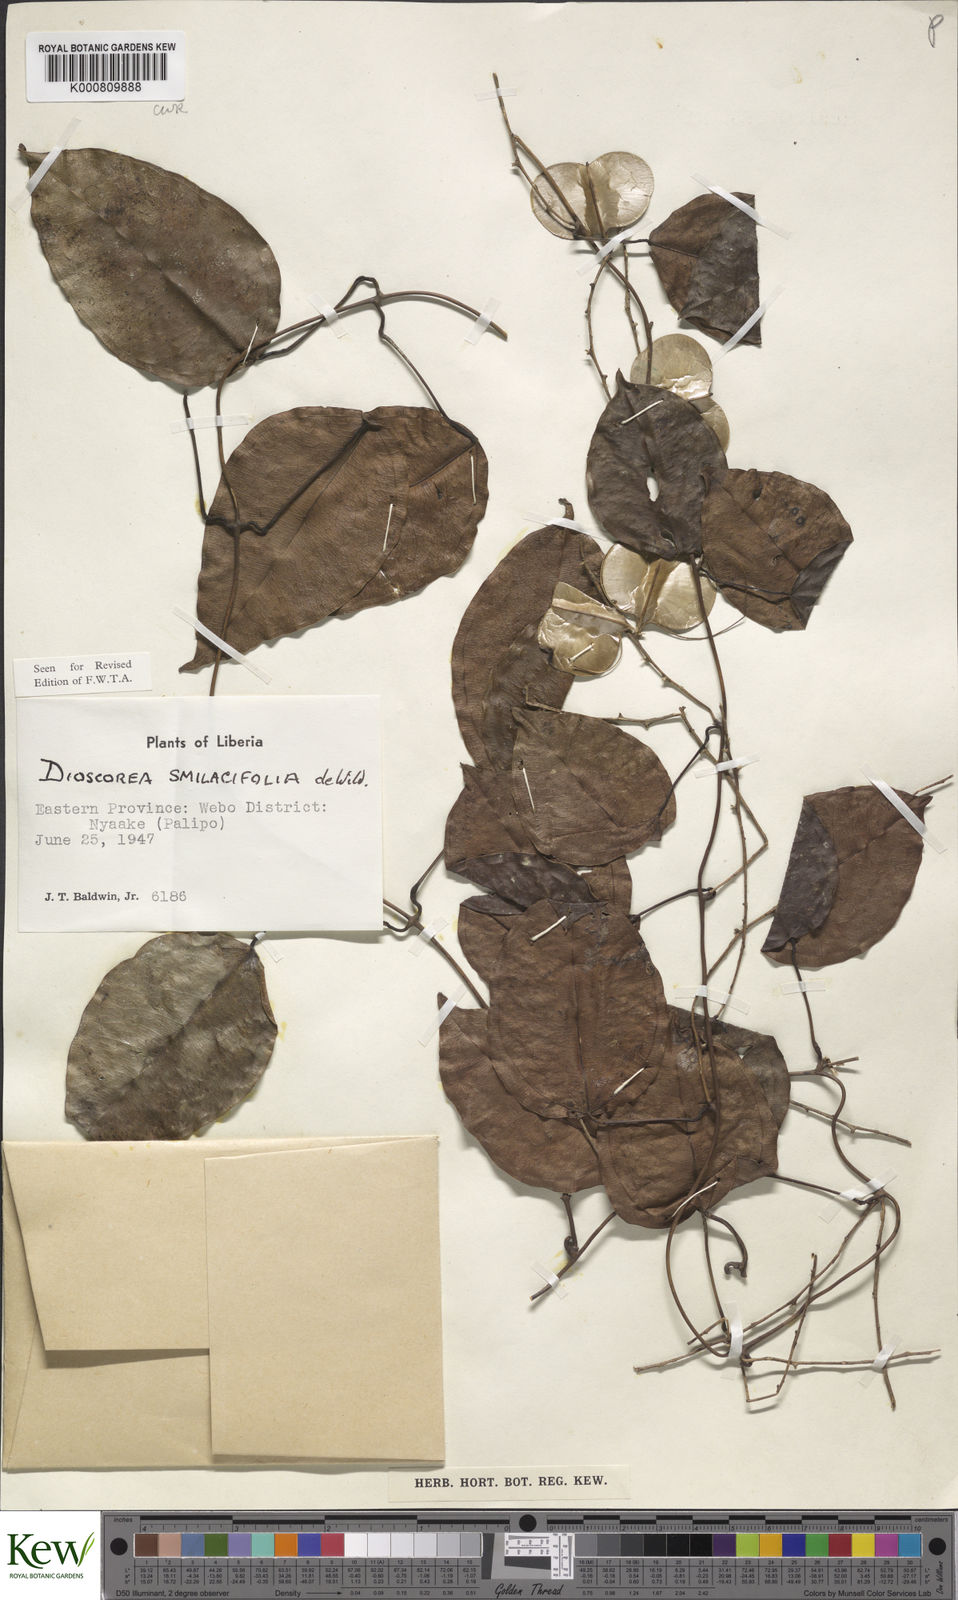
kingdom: Plantae
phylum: Tracheophyta
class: Liliopsida
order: Dioscoreales
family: Dioscoreaceae
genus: Dioscorea
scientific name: Dioscorea smilacifolia
